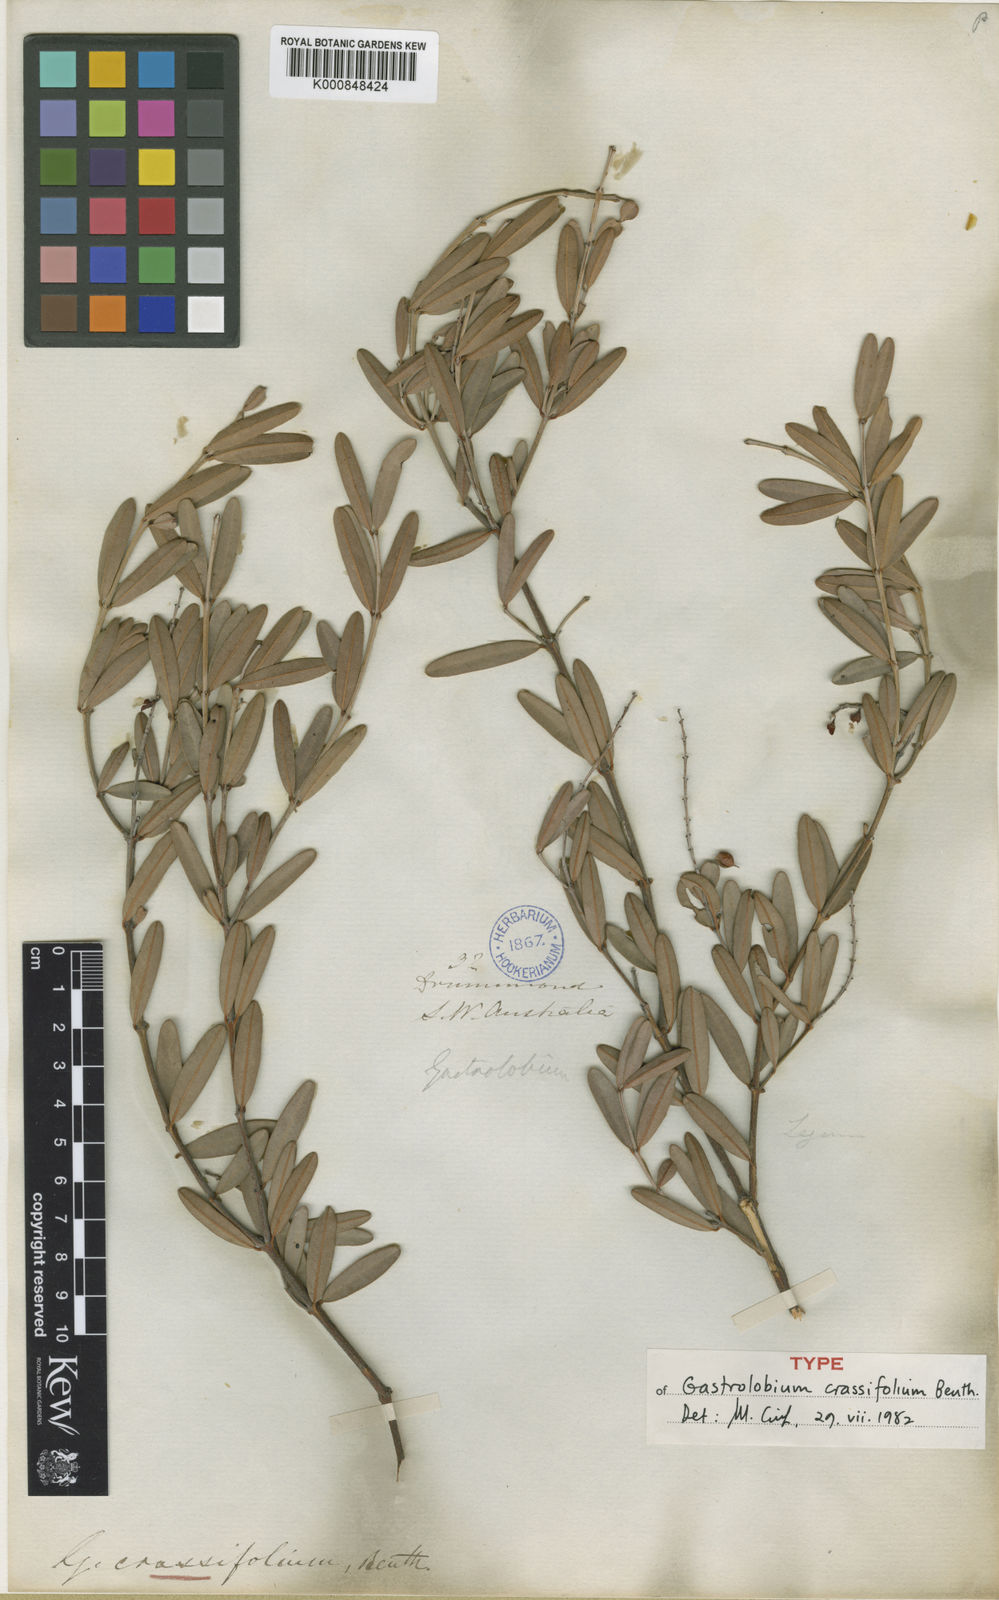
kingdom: Plantae
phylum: Tracheophyta
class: Magnoliopsida
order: Fabales
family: Fabaceae
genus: Gastrolobium
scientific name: Gastrolobium crassifolium
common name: Thick-leaf poison
